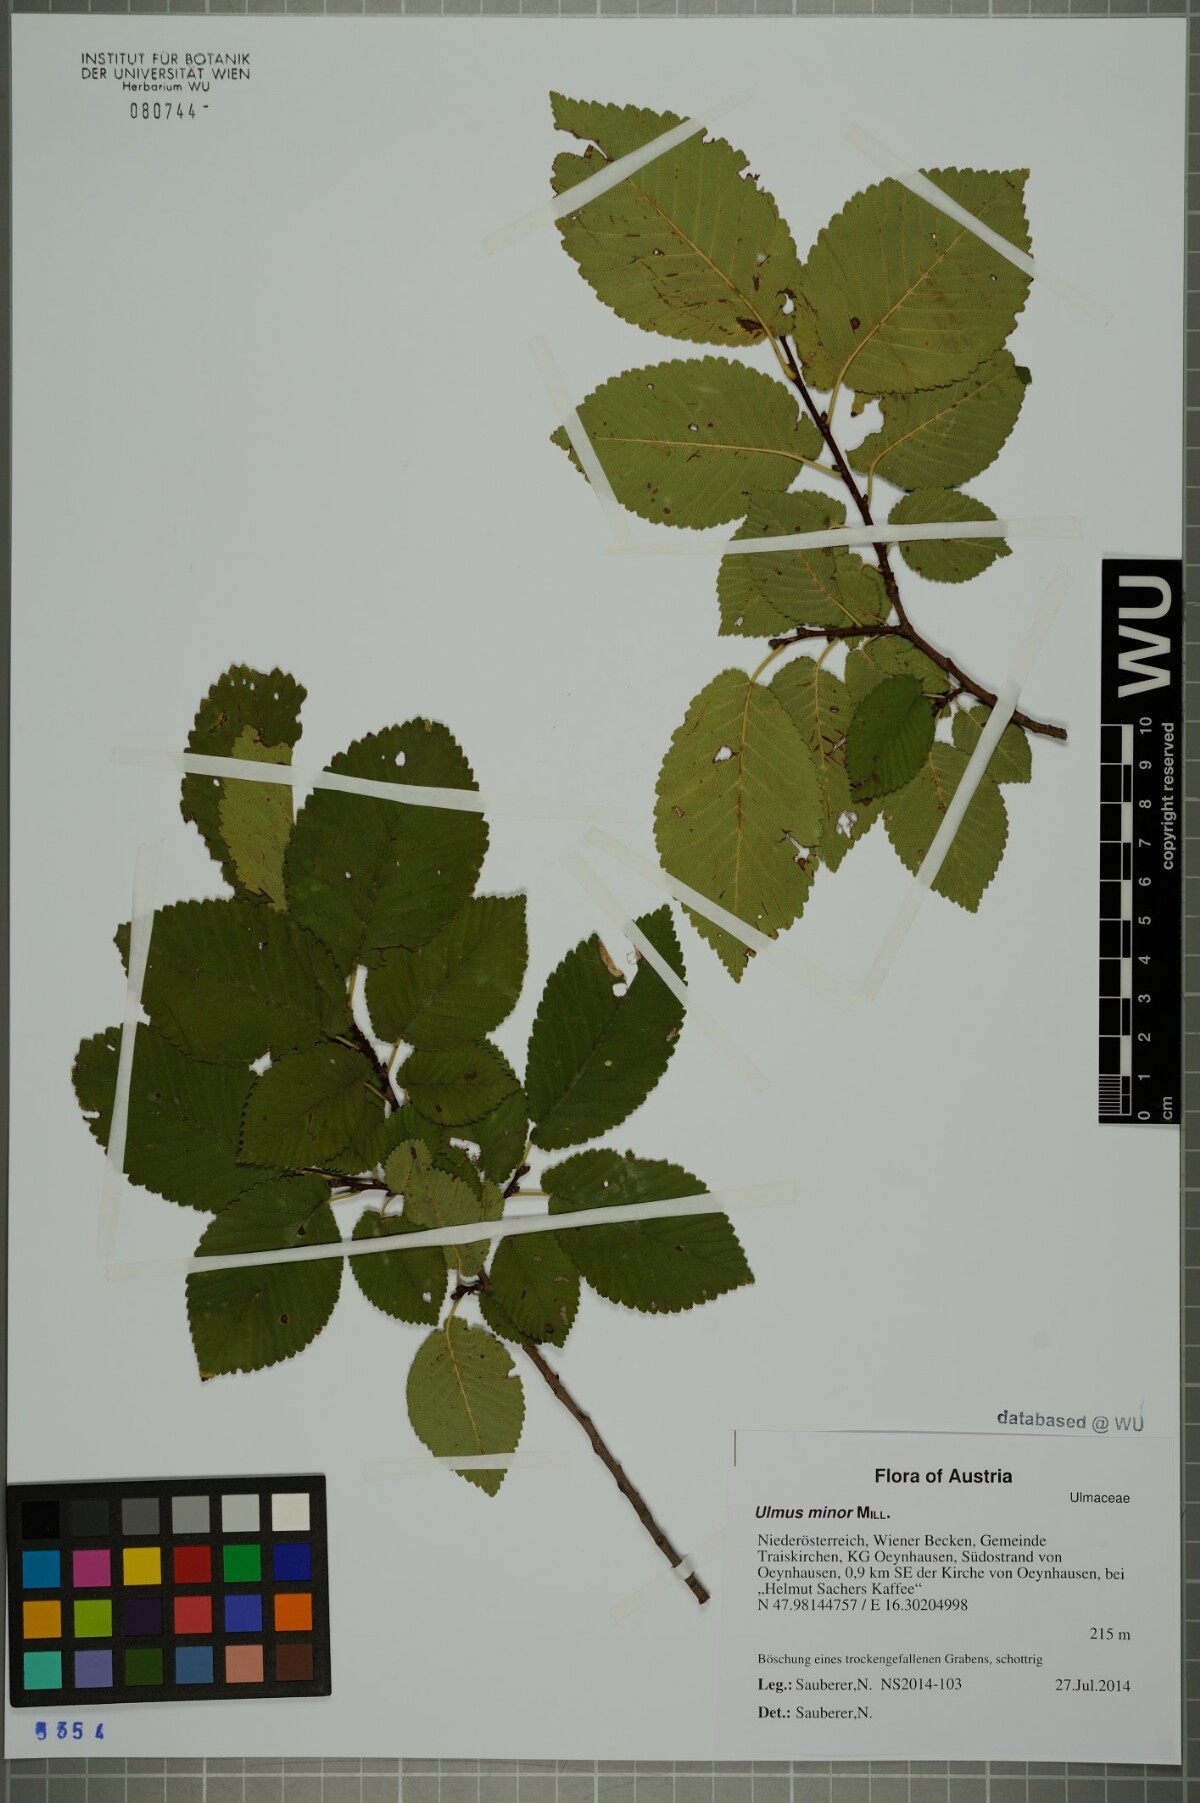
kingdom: Plantae
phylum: Tracheophyta
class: Magnoliopsida
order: Rosales
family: Ulmaceae
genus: Ulmus
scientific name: Ulmus minor
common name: Small-leaved elm
